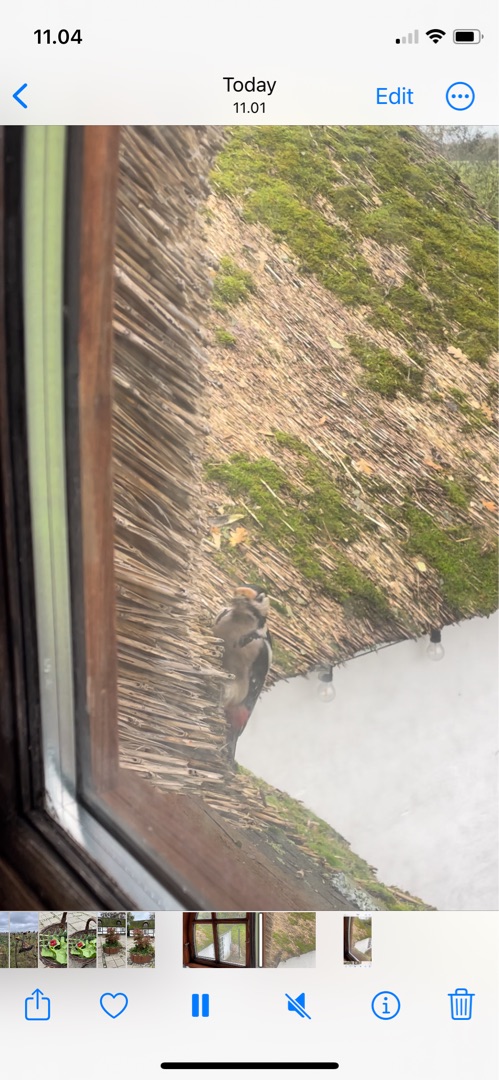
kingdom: Animalia
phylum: Chordata
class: Aves
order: Piciformes
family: Picidae
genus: Dendrocopos
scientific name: Dendrocopos major
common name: Stor flagspætte
